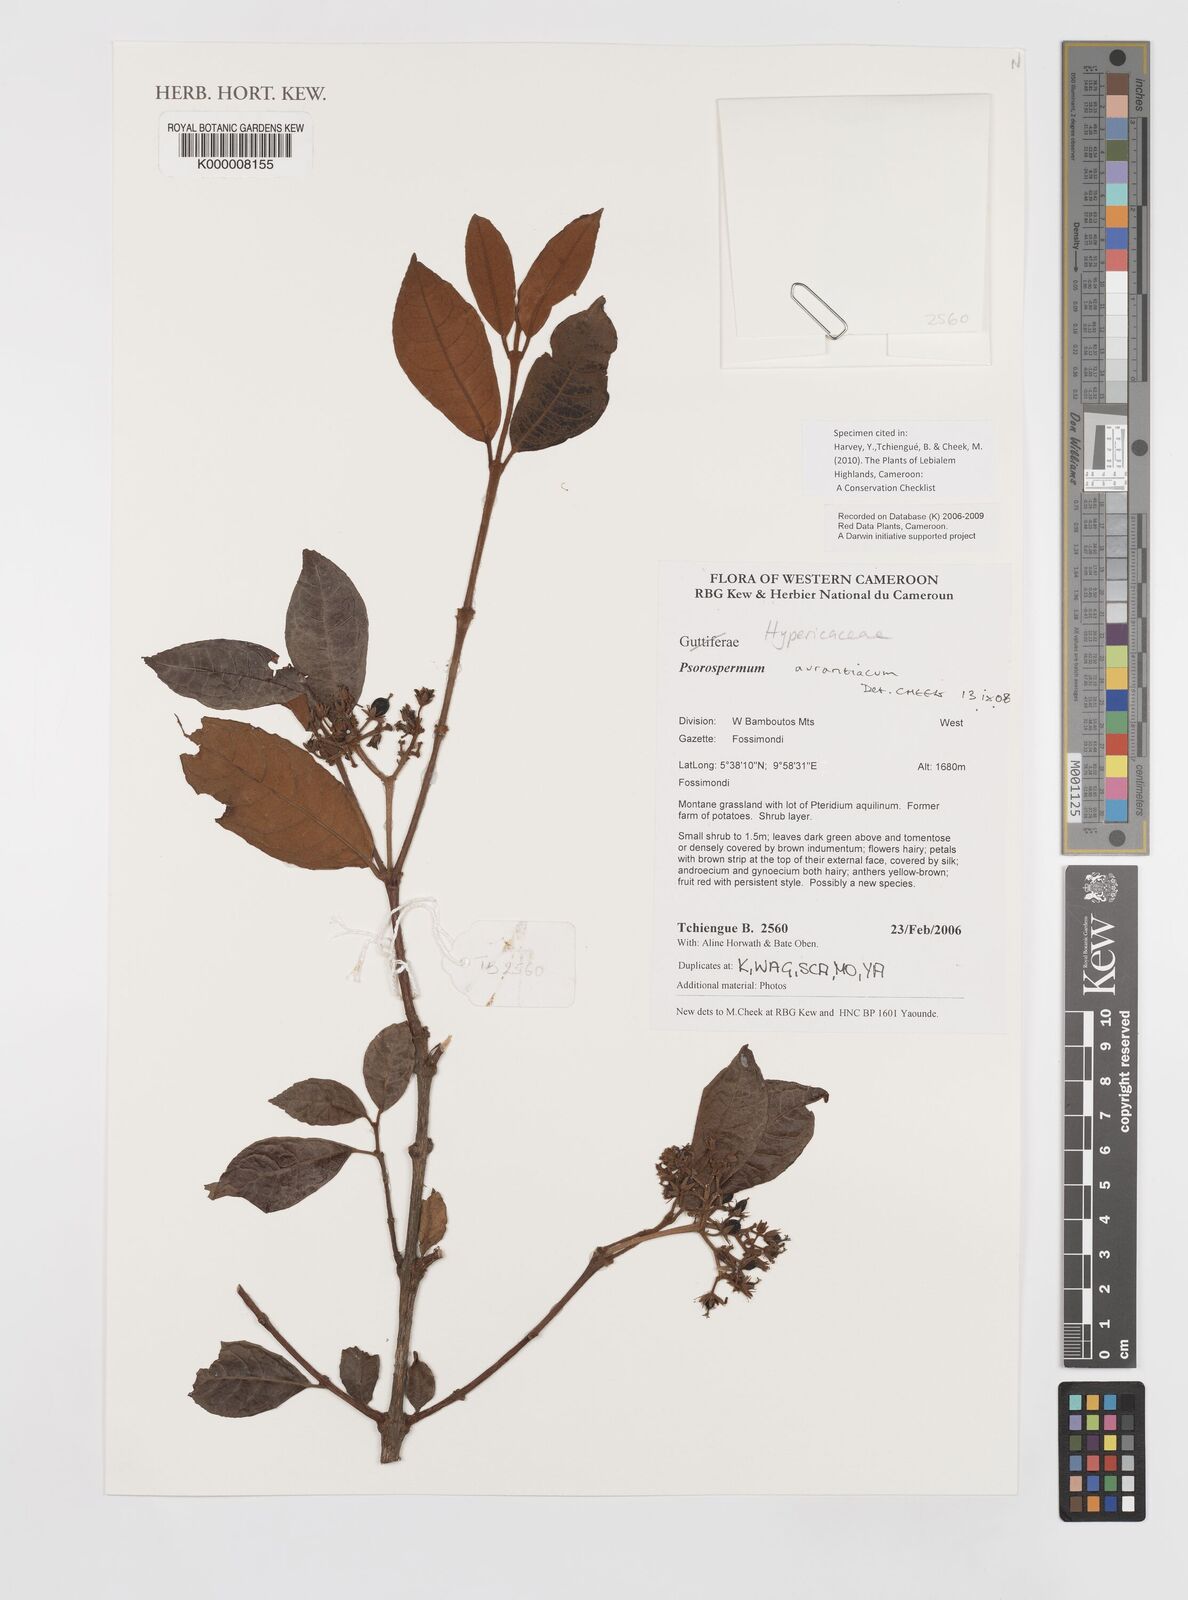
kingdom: Plantae
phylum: Tracheophyta
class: Magnoliopsida
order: Malpighiales
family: Hypericaceae
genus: Psorospermum
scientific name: Psorospermum aurantiacum
